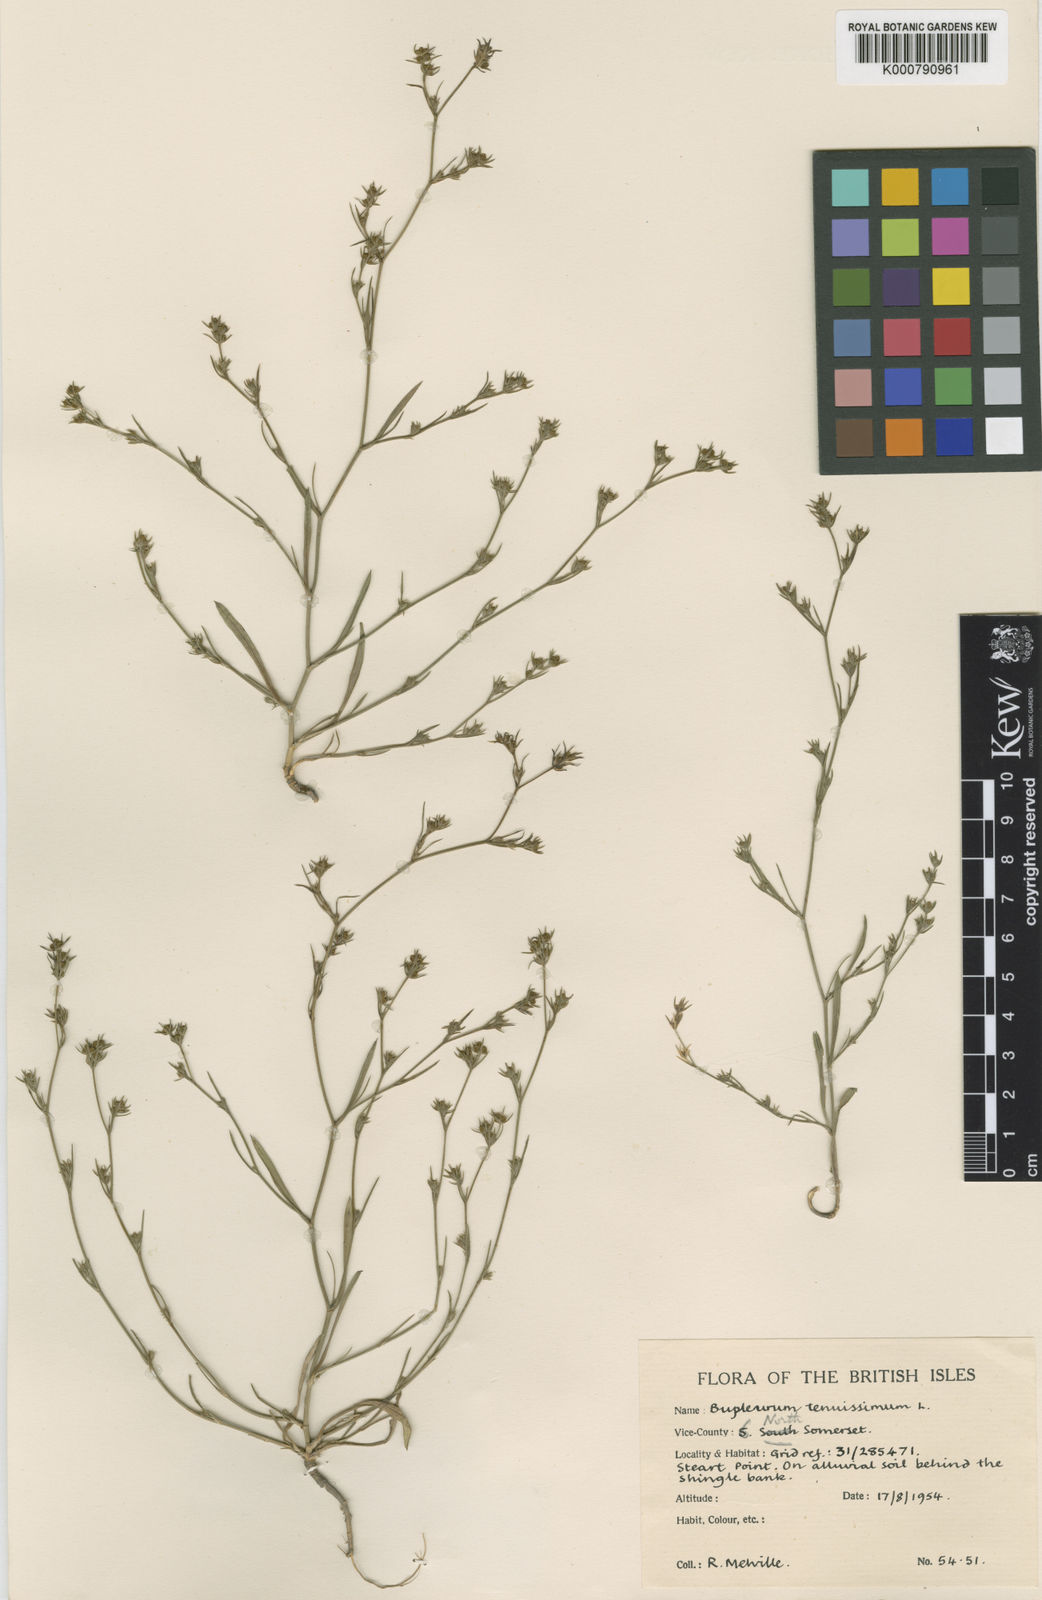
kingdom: Plantae
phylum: Tracheophyta
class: Magnoliopsida
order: Apiales
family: Apiaceae
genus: Bupleurum
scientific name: Bupleurum tenuissimum
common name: Slender hare's-ear
